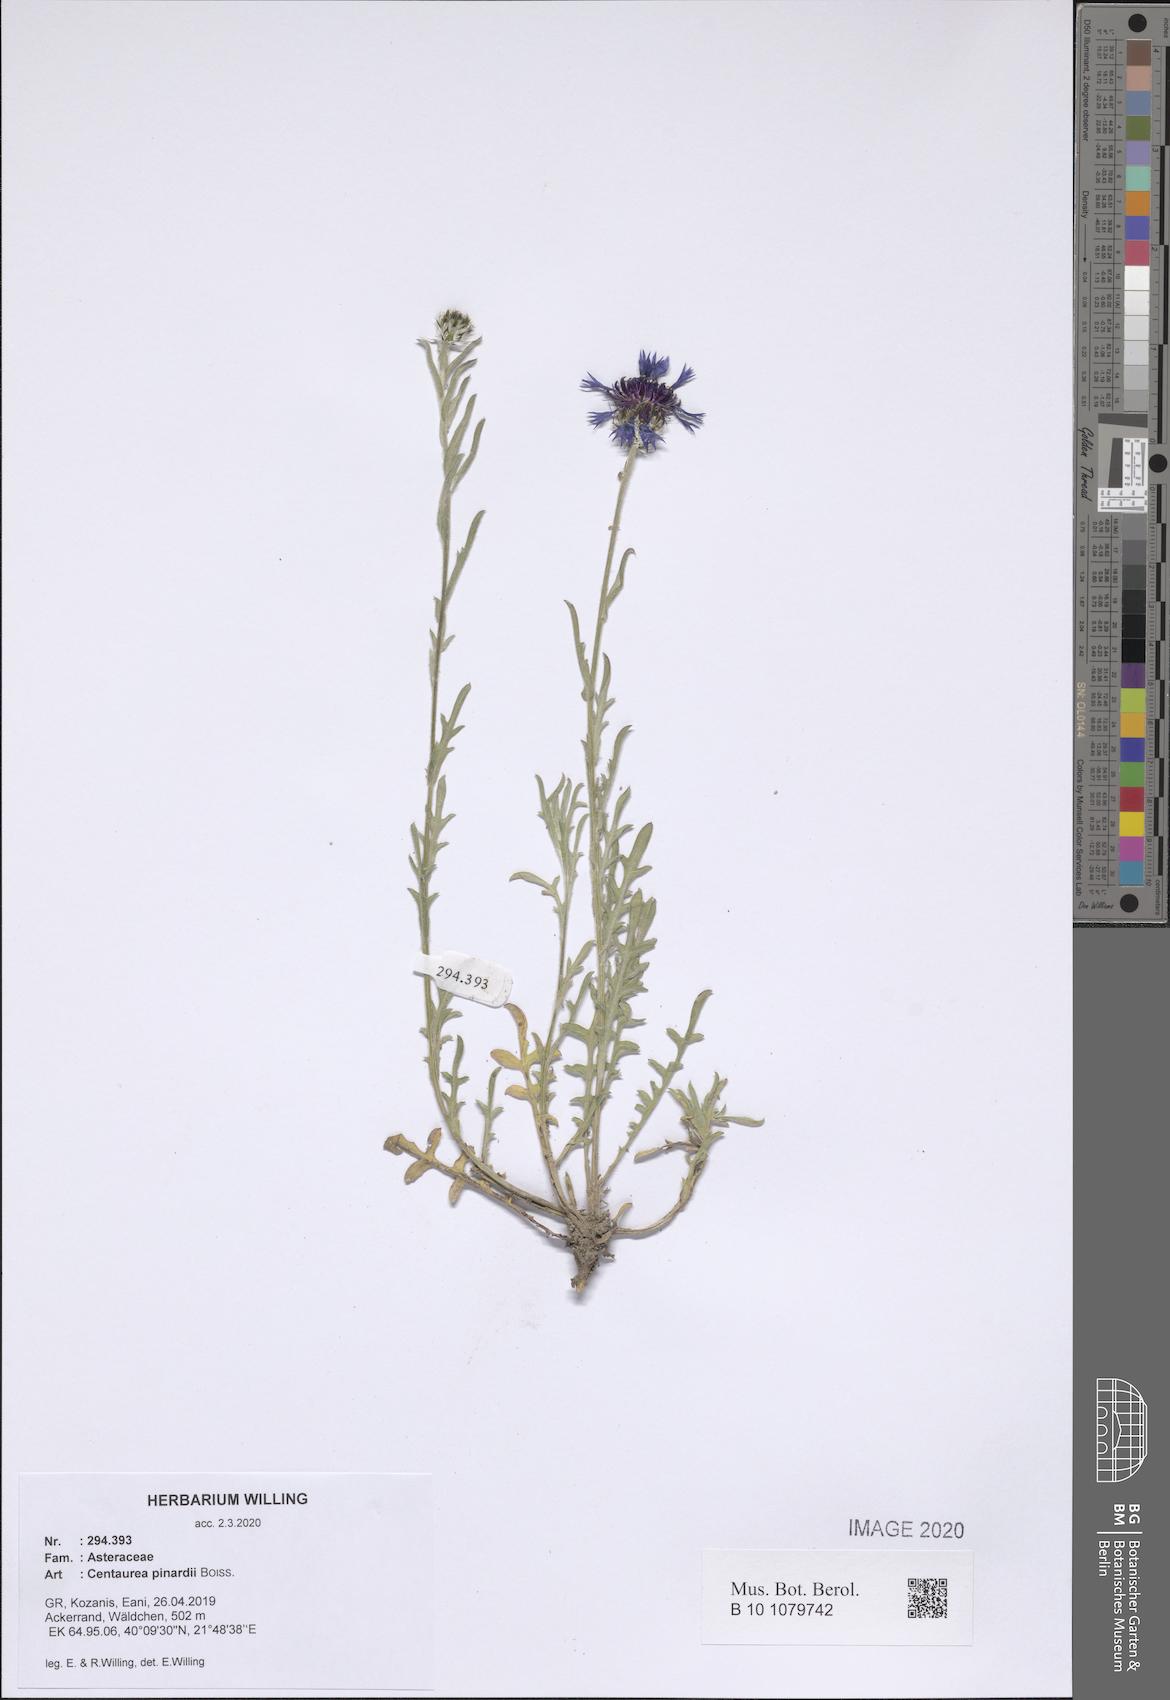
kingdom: Plantae
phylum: Tracheophyta
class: Magnoliopsida
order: Asterales
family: Asteraceae
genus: Centaurea
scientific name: Centaurea pinardii
